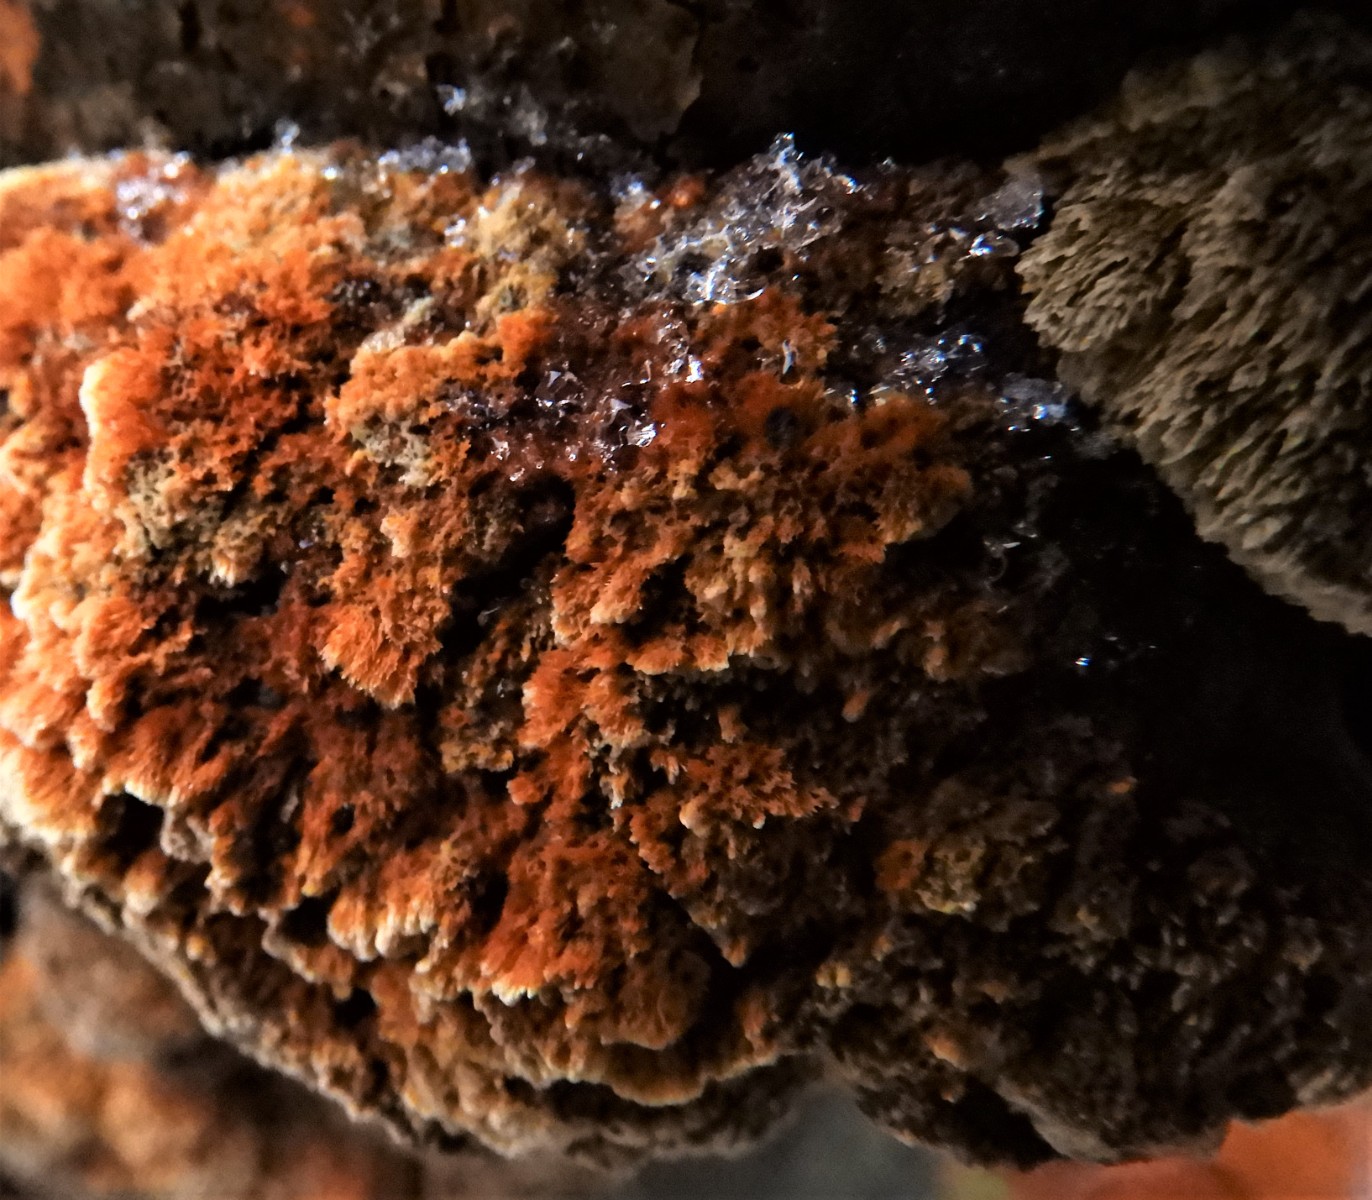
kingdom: Fungi
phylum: Basidiomycota
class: Agaricomycetes
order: Hymenochaetales
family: Hymenochaetaceae
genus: Mensularia
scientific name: Mensularia nodulosa
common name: bøge-spejlporesvamp
